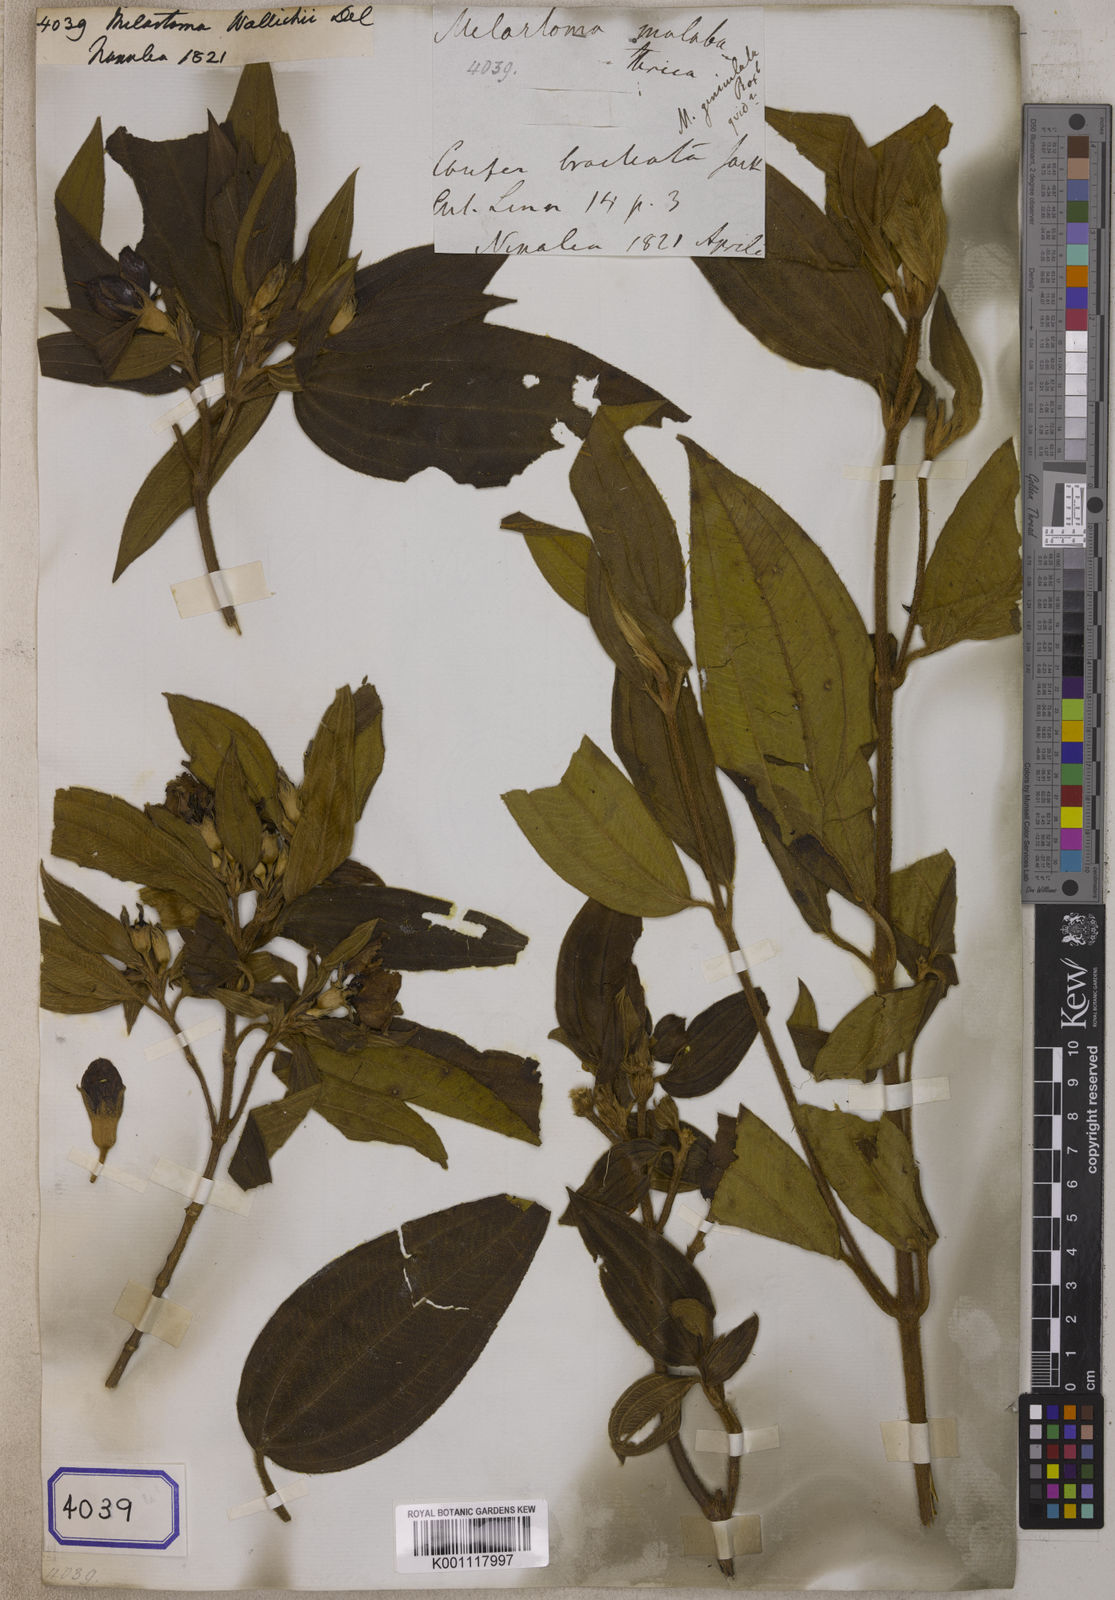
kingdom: Plantae
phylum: Tracheophyta
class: Magnoliopsida
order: Myrtales
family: Melastomataceae
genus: Melastoma
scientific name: Melastoma malabathricum
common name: Indian-rhododendron
